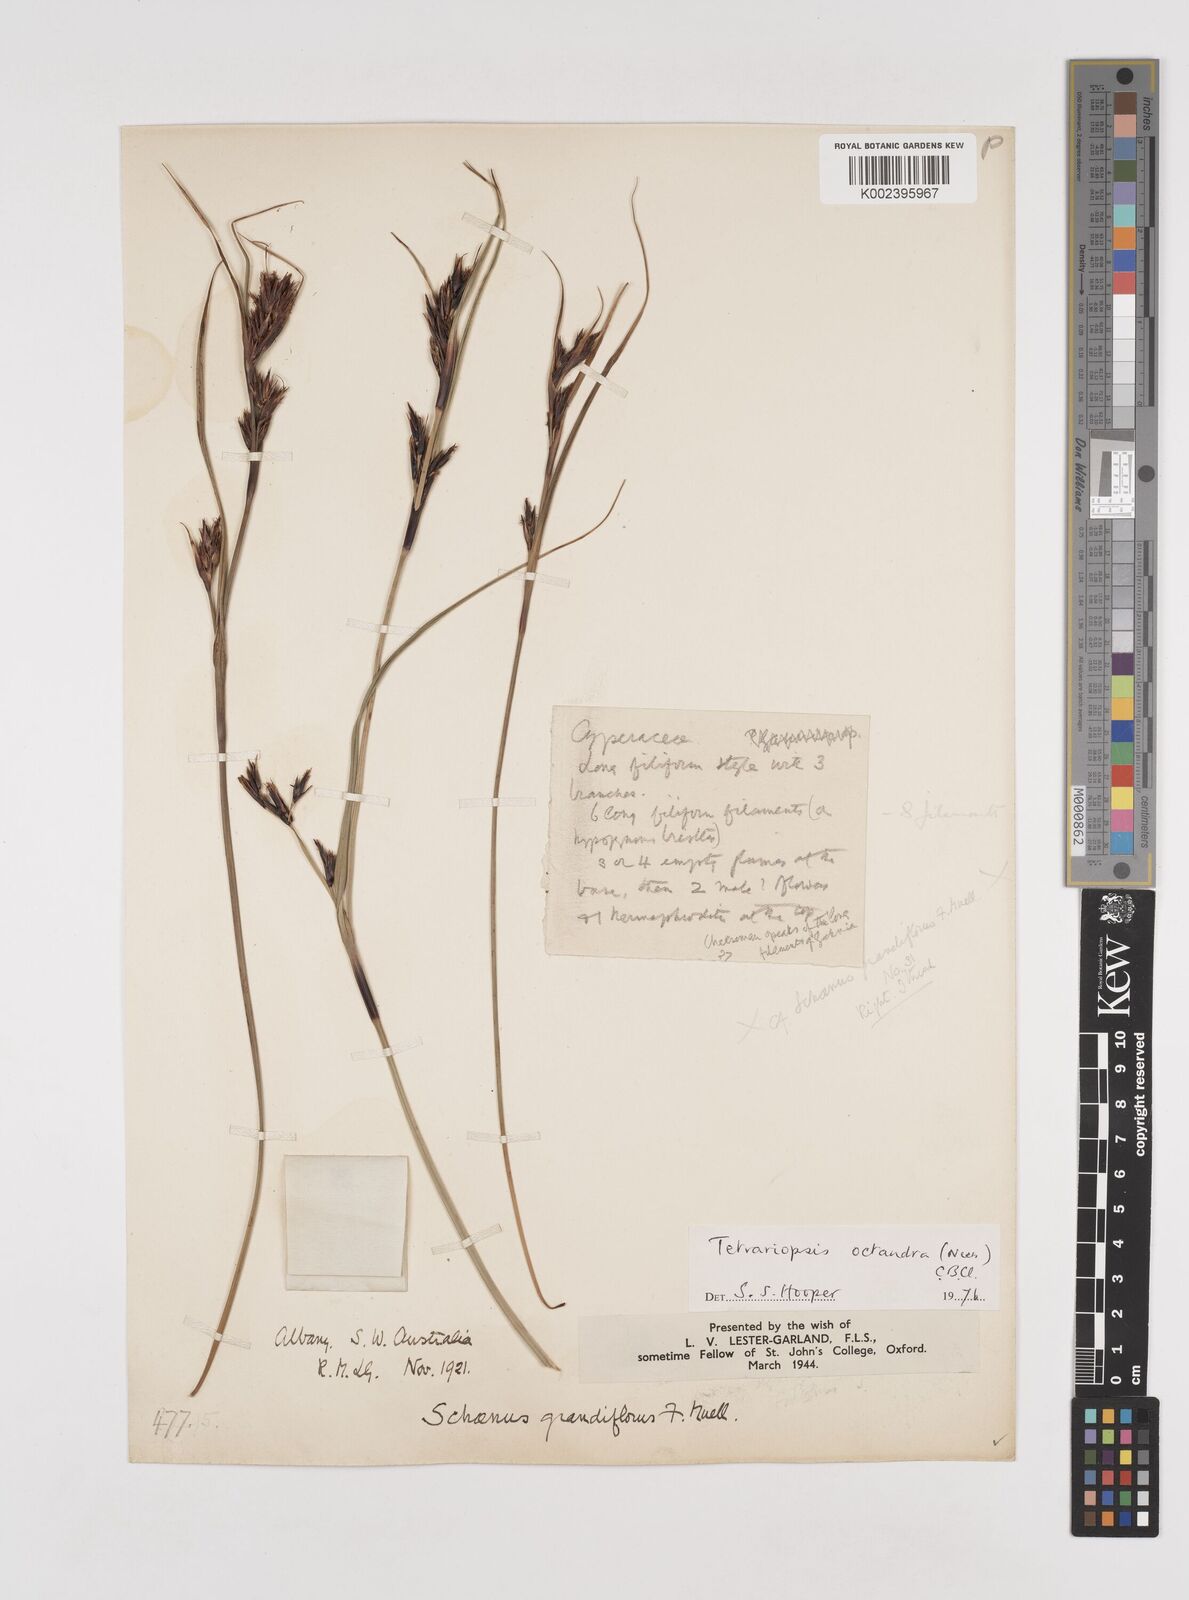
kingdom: Plantae
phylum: Tracheophyta
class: Liliopsida
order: Poales
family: Cyperaceae
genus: Tetraria
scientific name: Tetraria octandra
